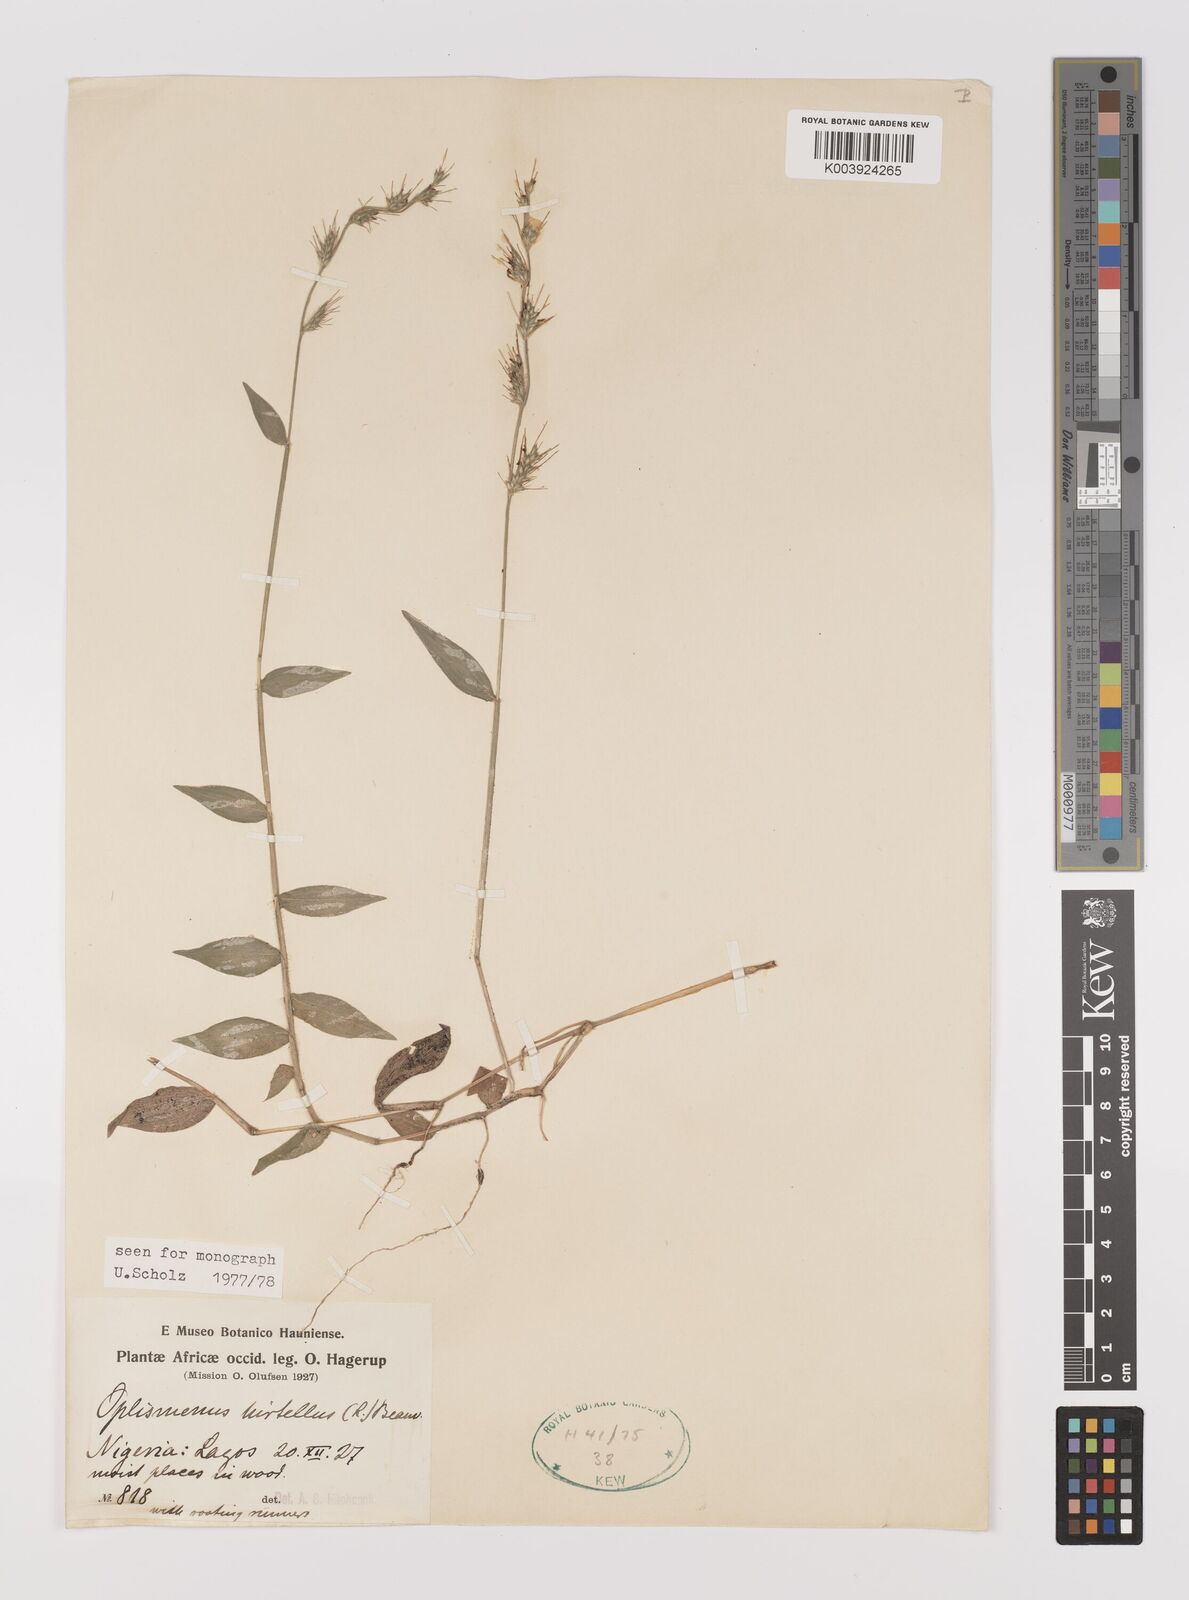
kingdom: Plantae
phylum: Tracheophyta
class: Liliopsida
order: Poales
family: Poaceae
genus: Oplismenus
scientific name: Oplismenus hirtellus
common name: Basketgrass
